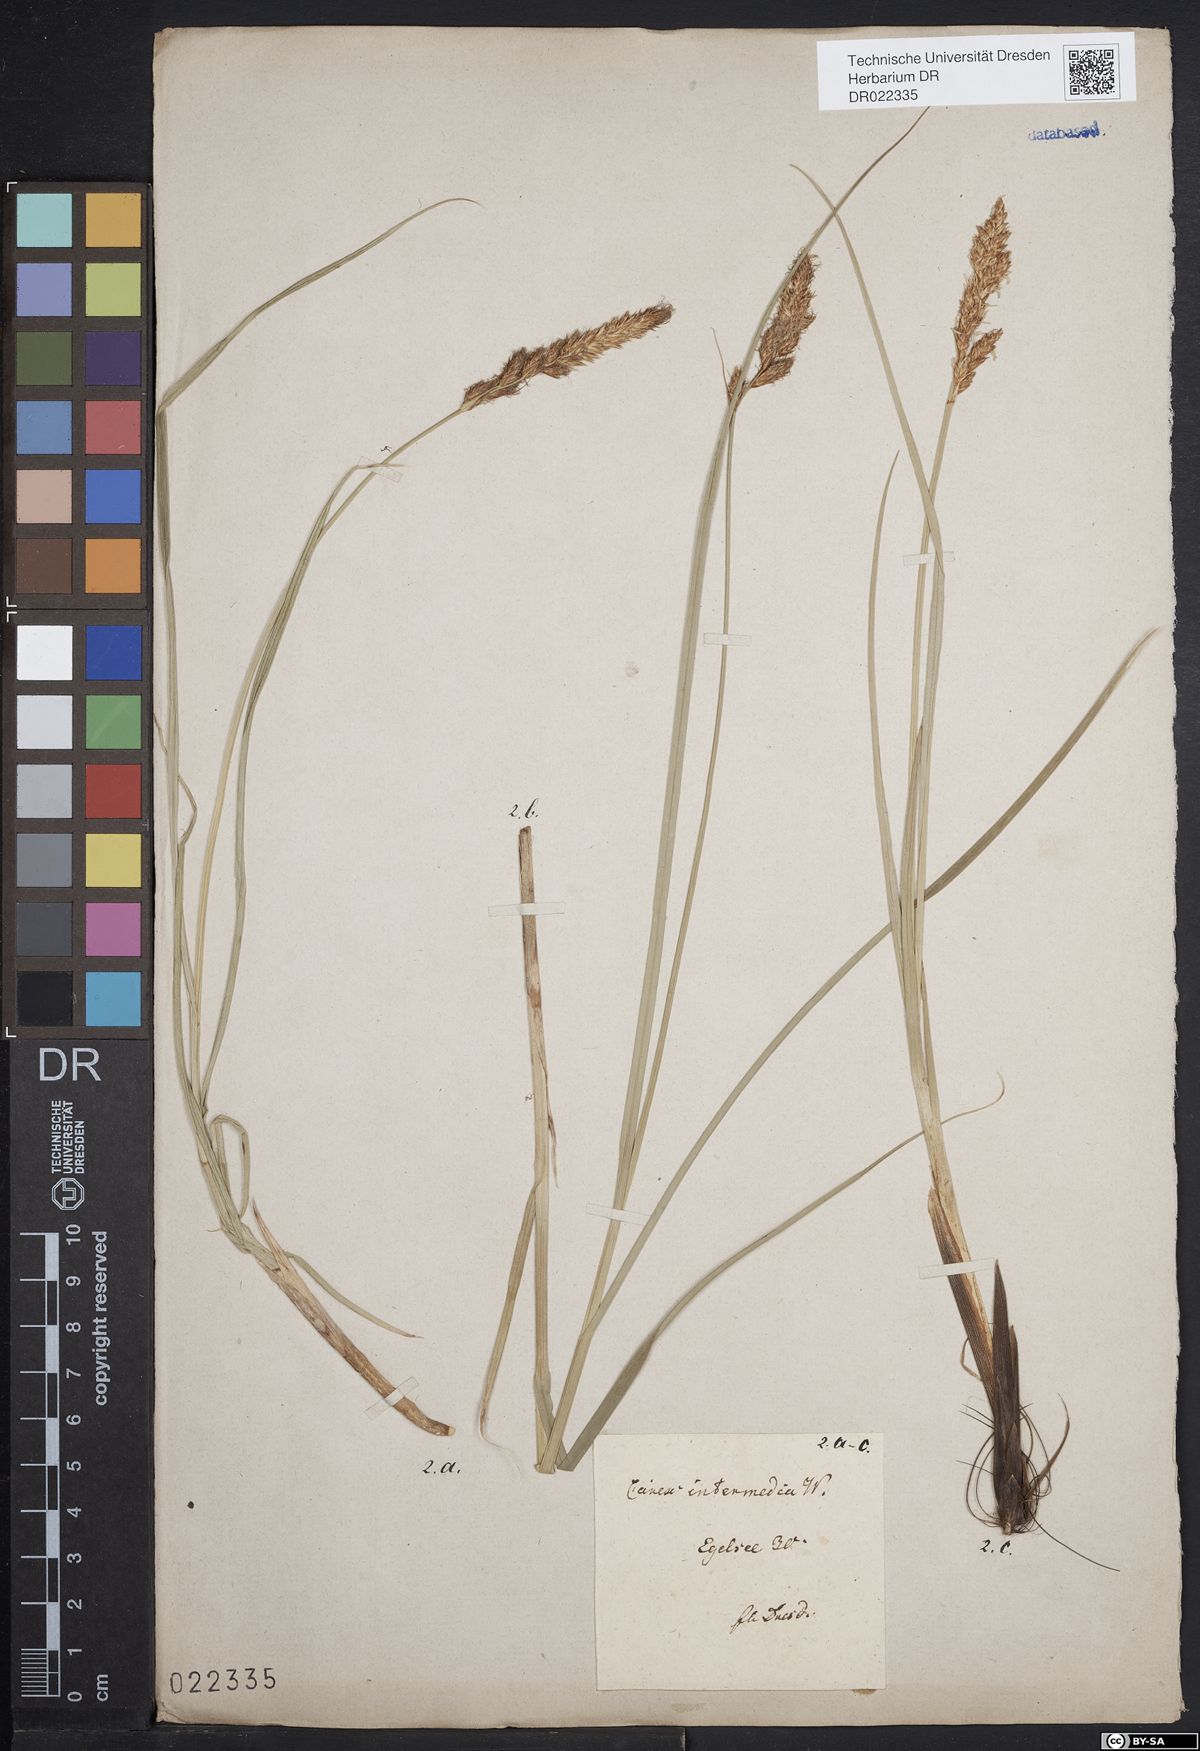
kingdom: Plantae
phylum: Tracheophyta
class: Liliopsida
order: Poales
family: Cyperaceae
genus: Carex
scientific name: Carex disticha
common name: Brown sedge
